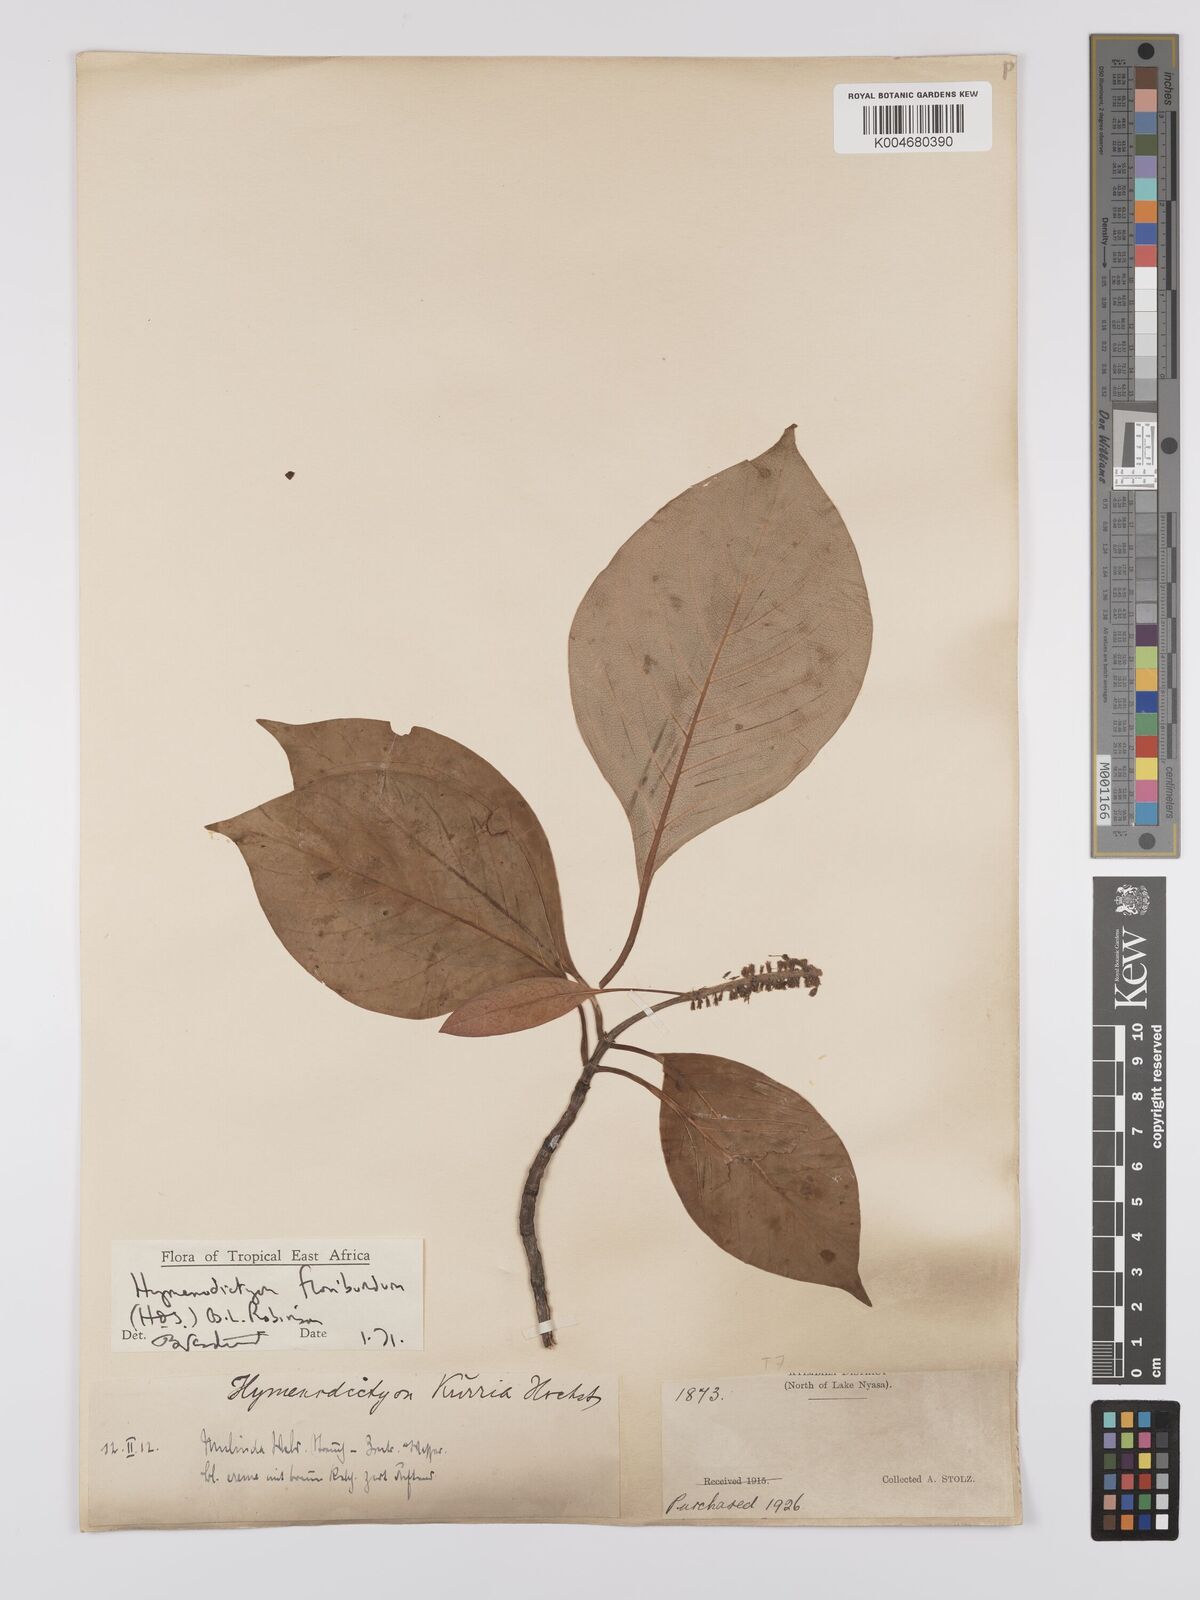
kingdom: Plantae
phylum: Tracheophyta
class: Magnoliopsida
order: Gentianales
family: Rubiaceae
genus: Hymenodictyon
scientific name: Hymenodictyon floribundum
